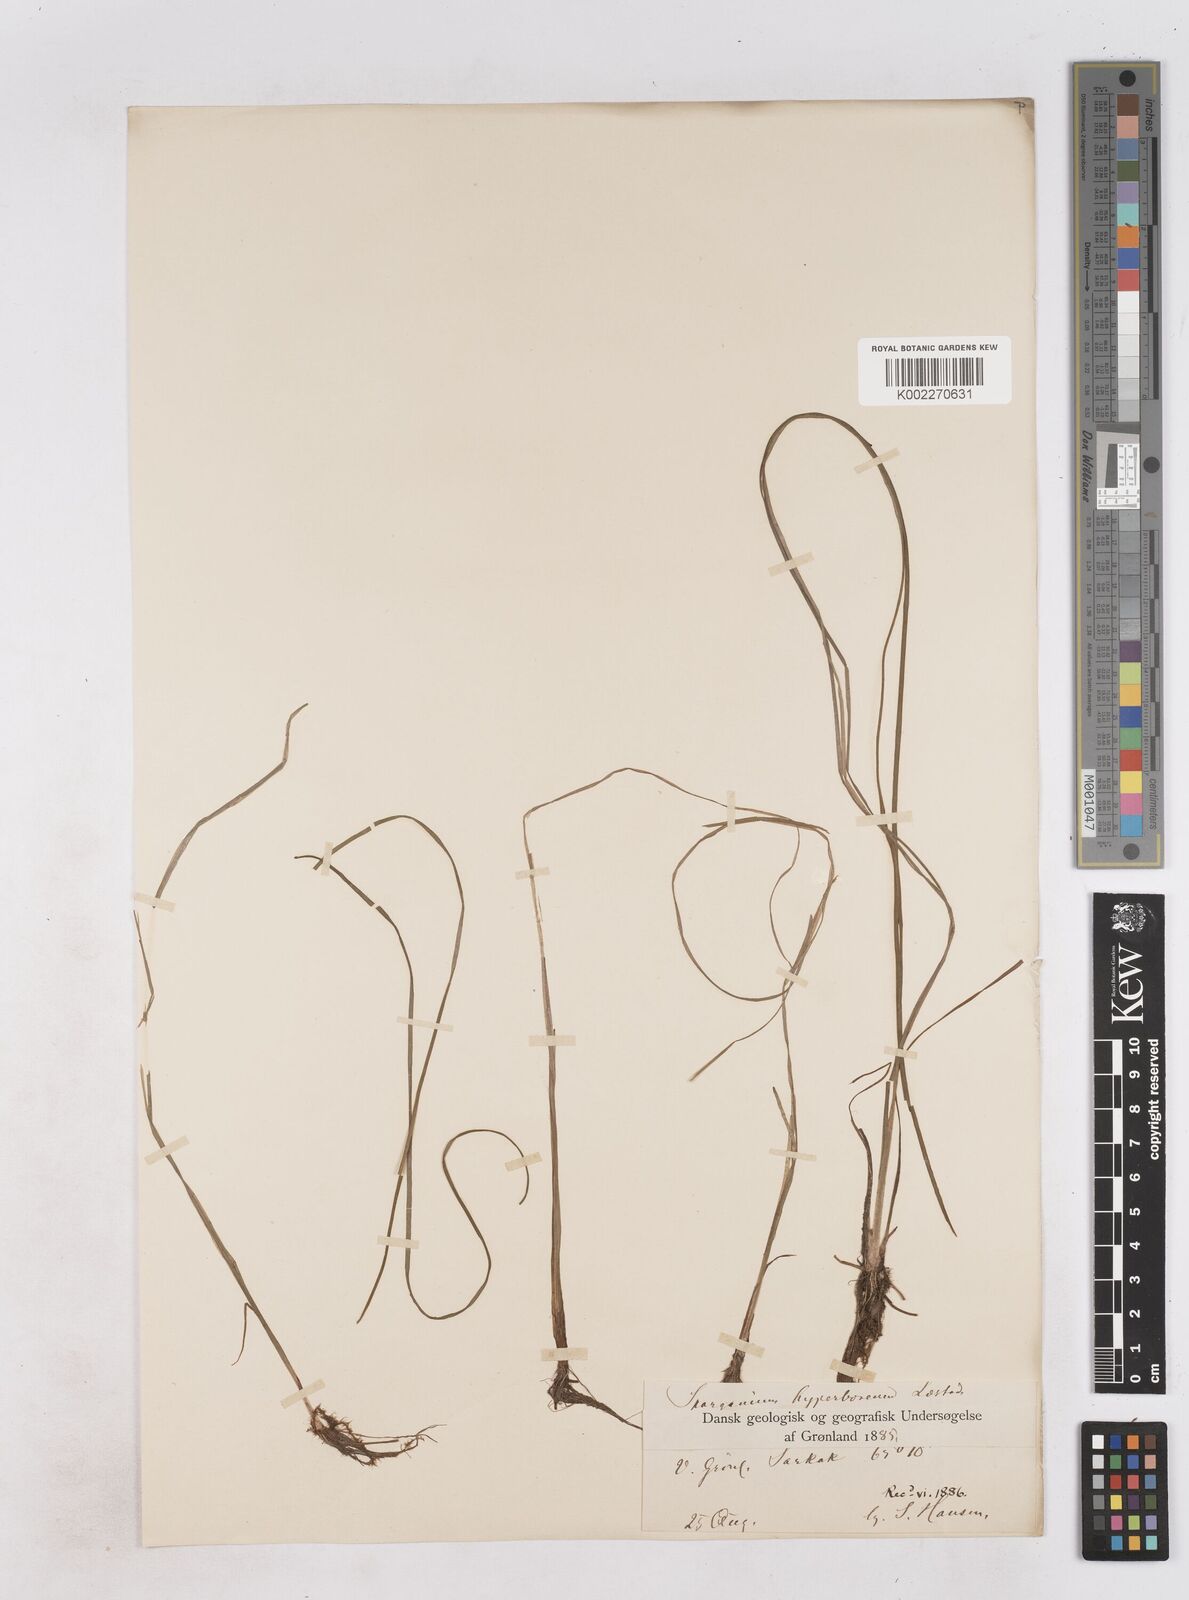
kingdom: Plantae
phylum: Tracheophyta
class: Liliopsida
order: Poales
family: Typhaceae
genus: Sparganium
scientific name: Sparganium hyperboreum
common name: Arctic burreed
